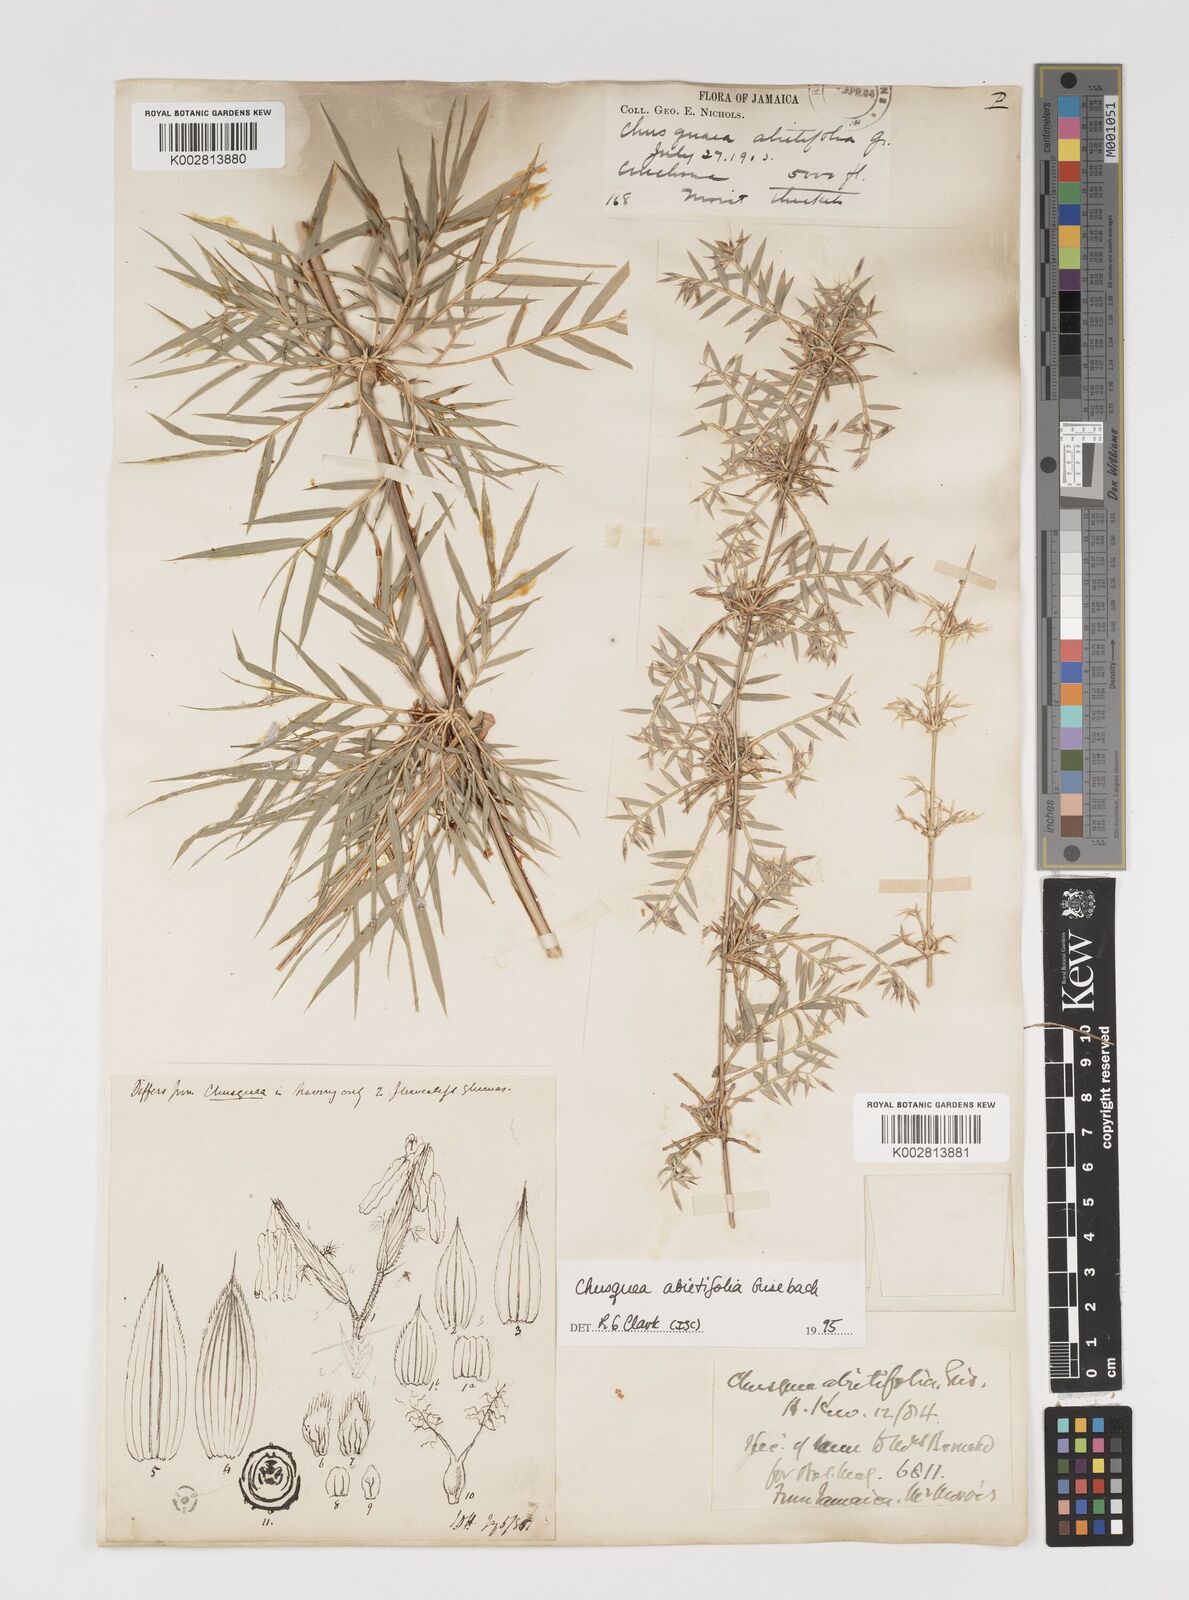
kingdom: Plantae
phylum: Tracheophyta
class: Liliopsida
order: Poales
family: Poaceae
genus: Chusquea
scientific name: Chusquea abietifolia
